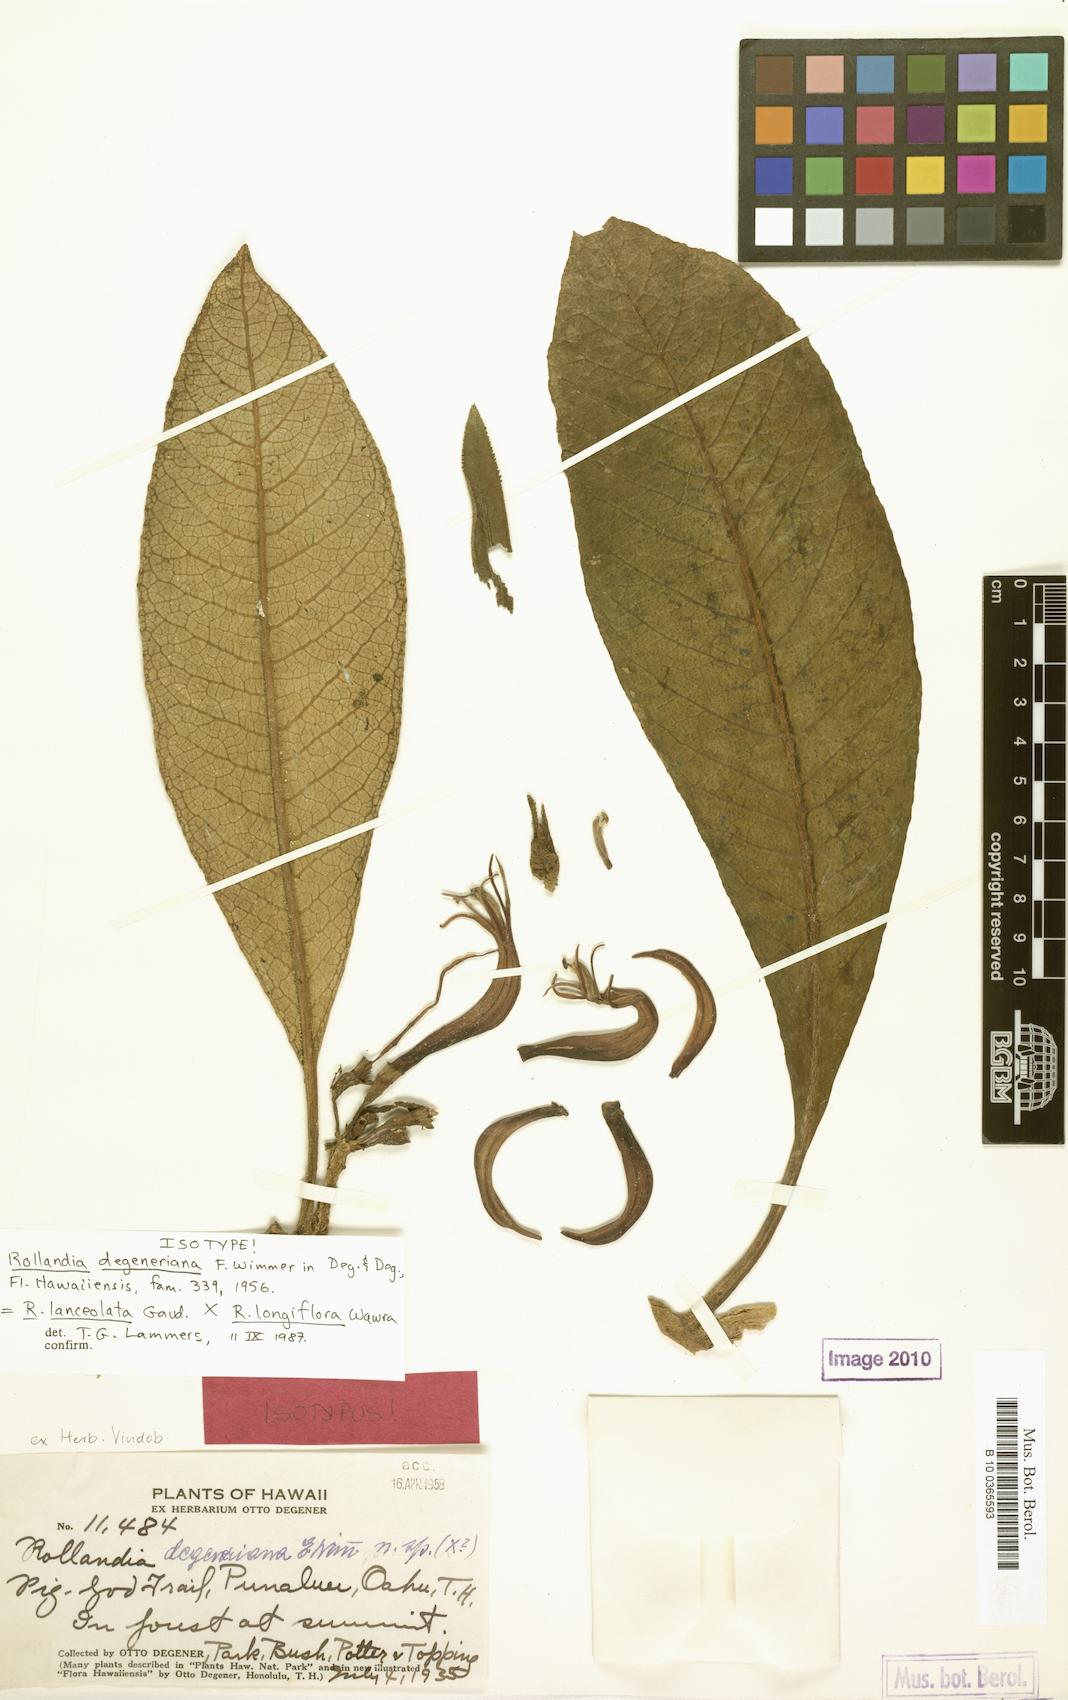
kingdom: Plantae
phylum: Tracheophyta
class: Magnoliopsida
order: Asterales
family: Campanulaceae
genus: Cyanea
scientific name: Cyanea lanceolata
